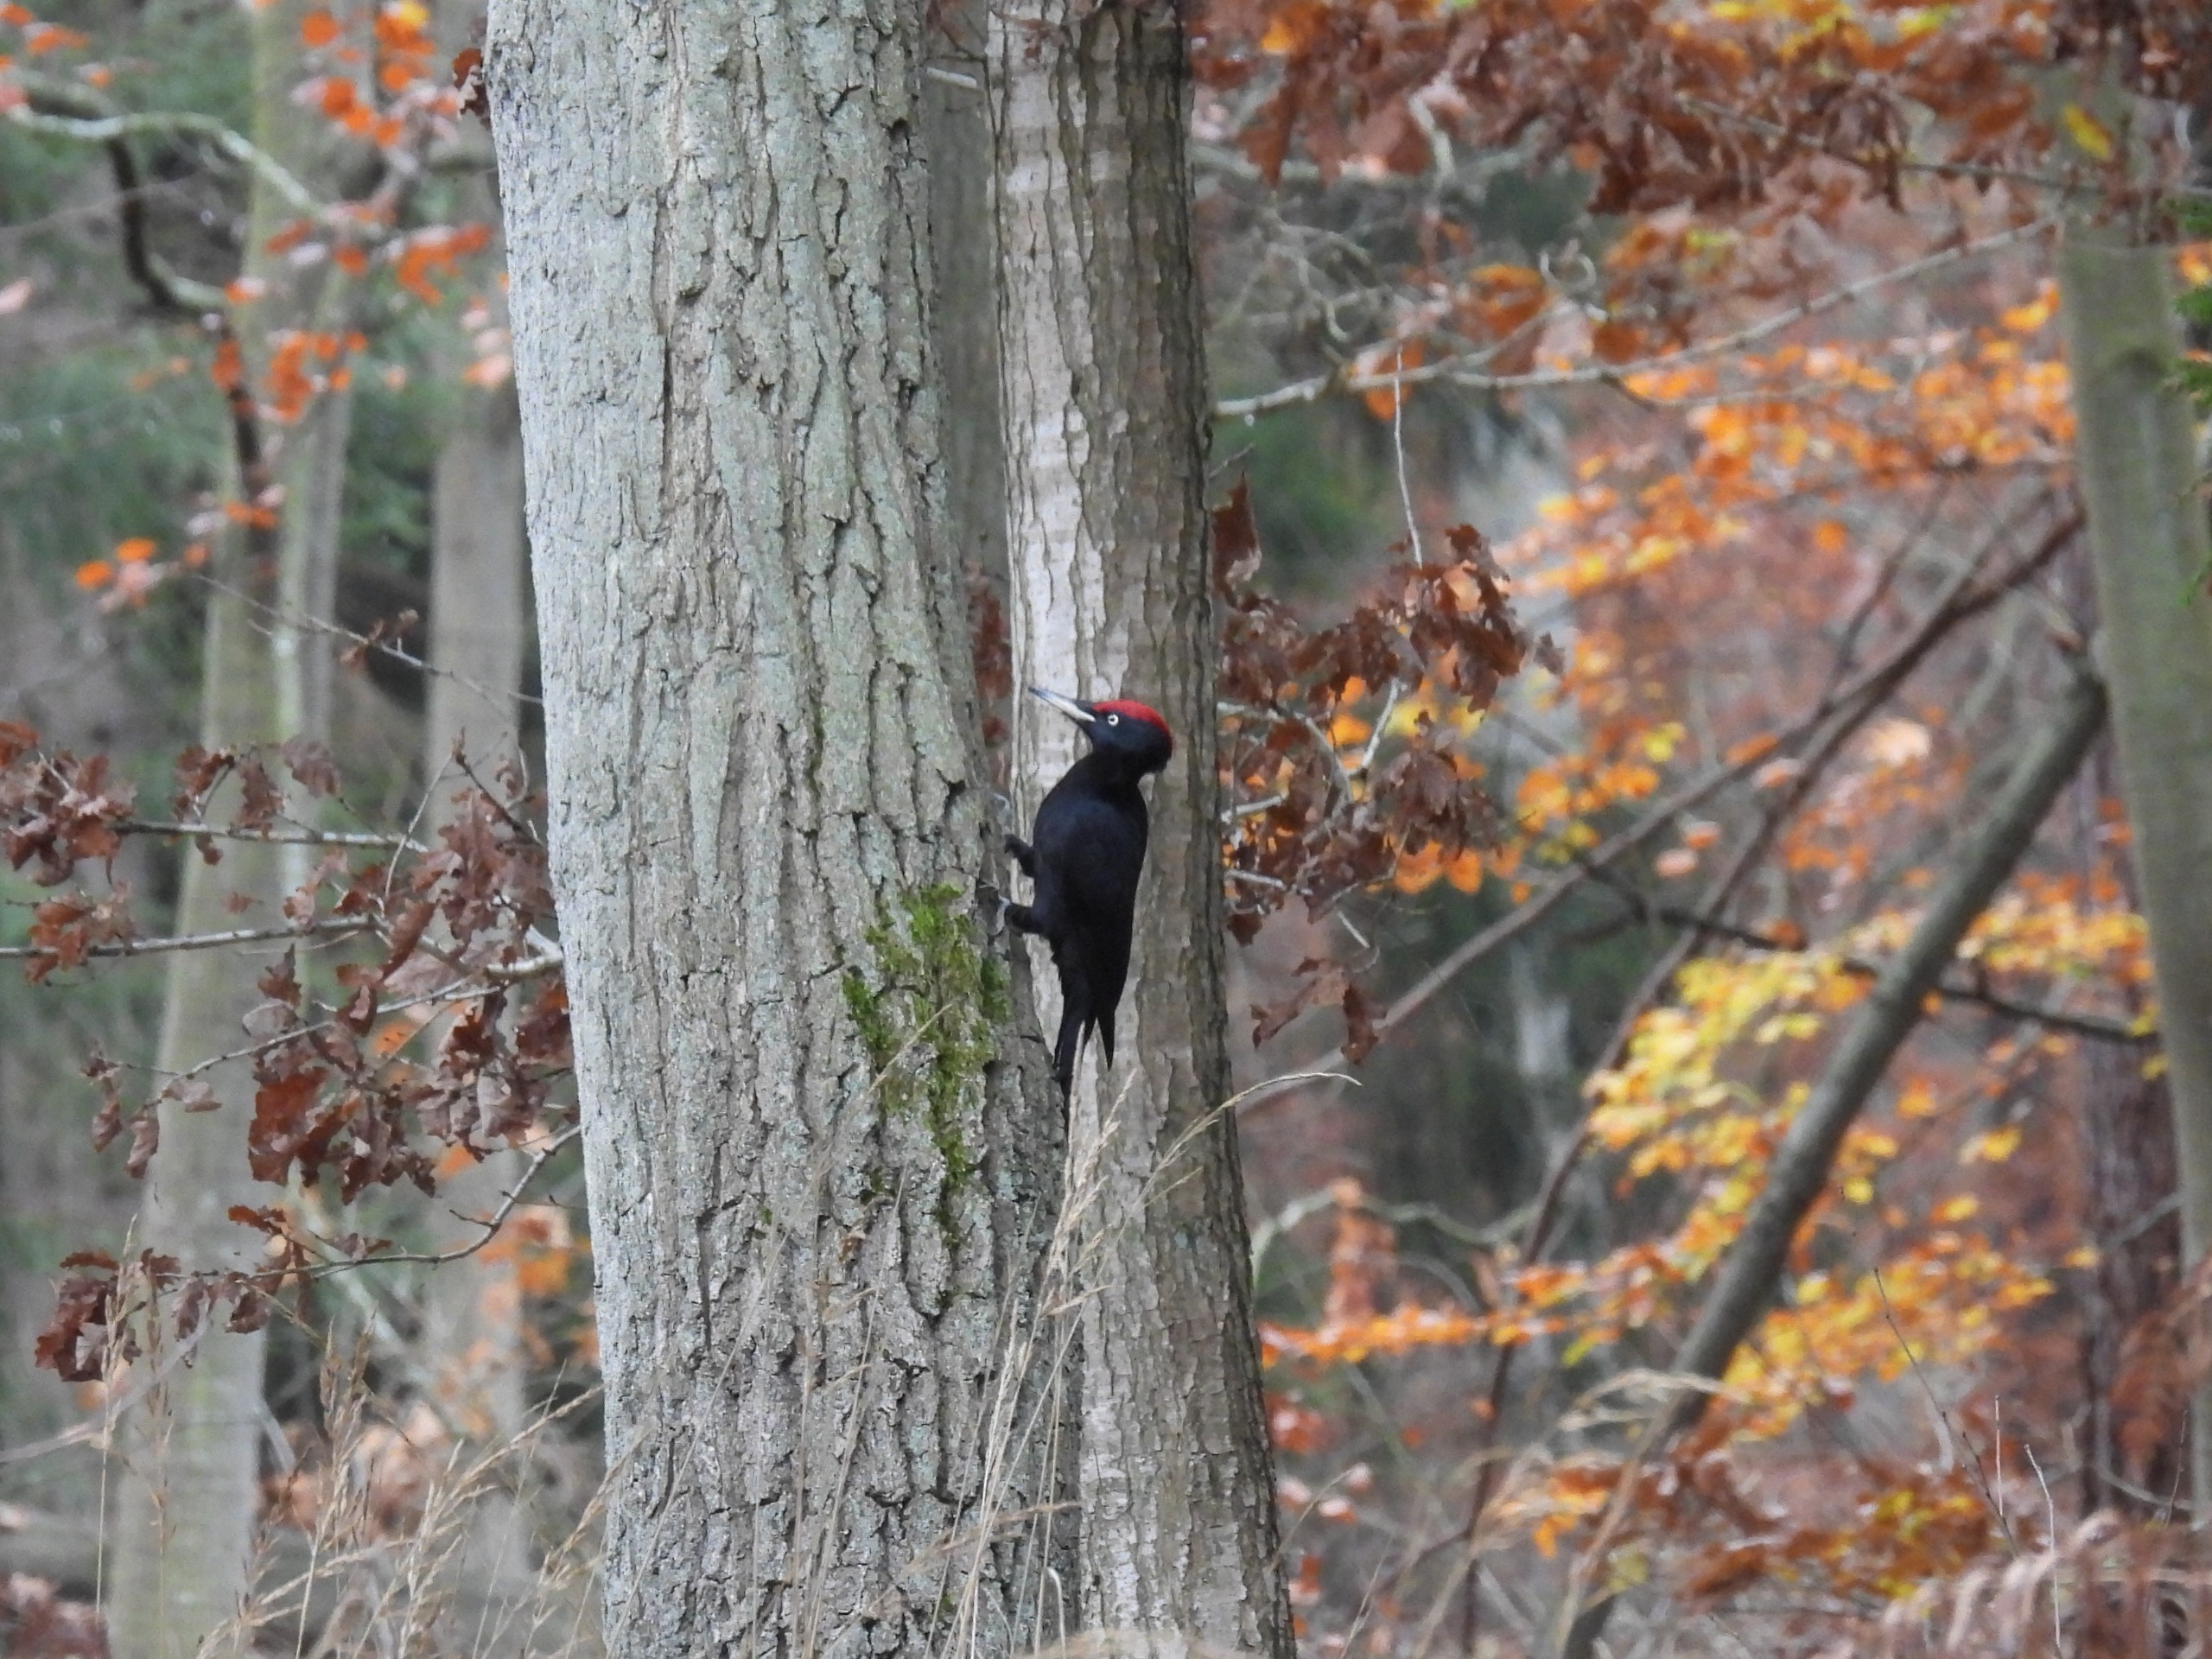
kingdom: Animalia
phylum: Chordata
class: Aves
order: Piciformes
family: Picidae
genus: Dryocopus
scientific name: Dryocopus martius
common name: Sortspætte
